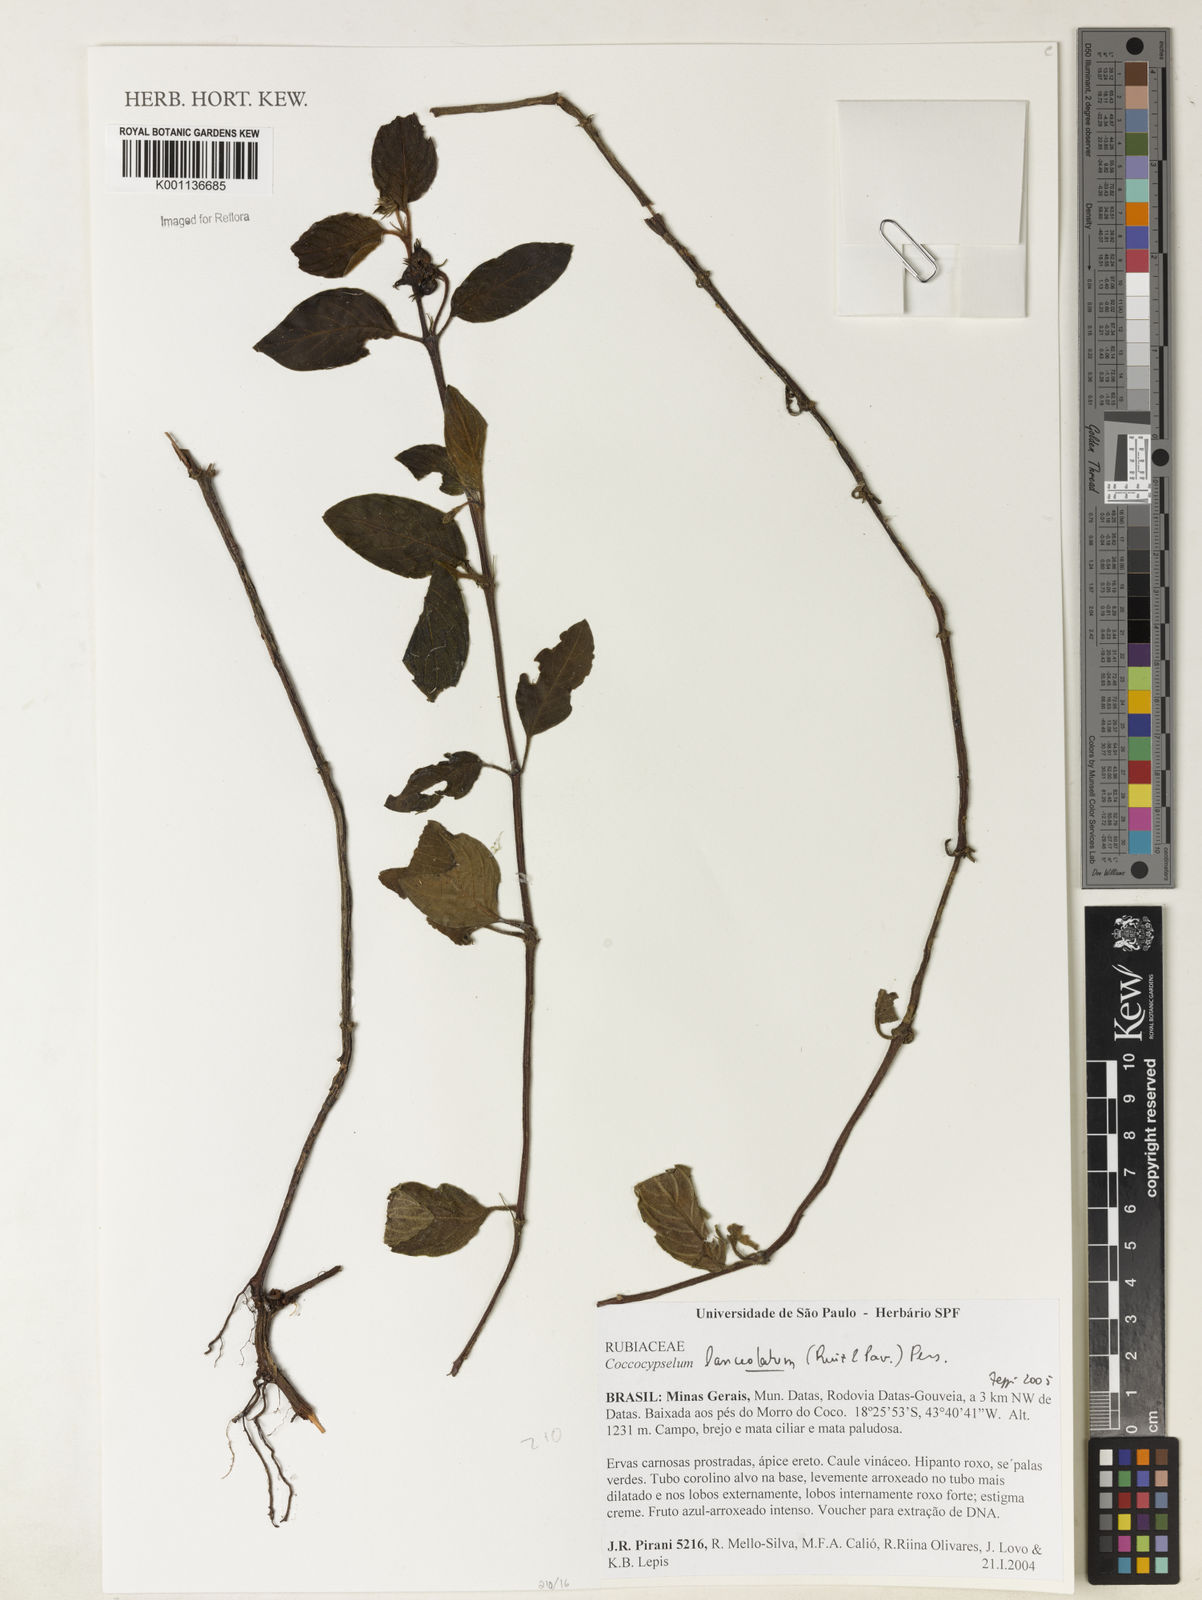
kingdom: Plantae
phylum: Tracheophyta
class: Magnoliopsida
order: Gentianales
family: Rubiaceae
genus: Coccocypselum
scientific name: Coccocypselum lanceolatum
